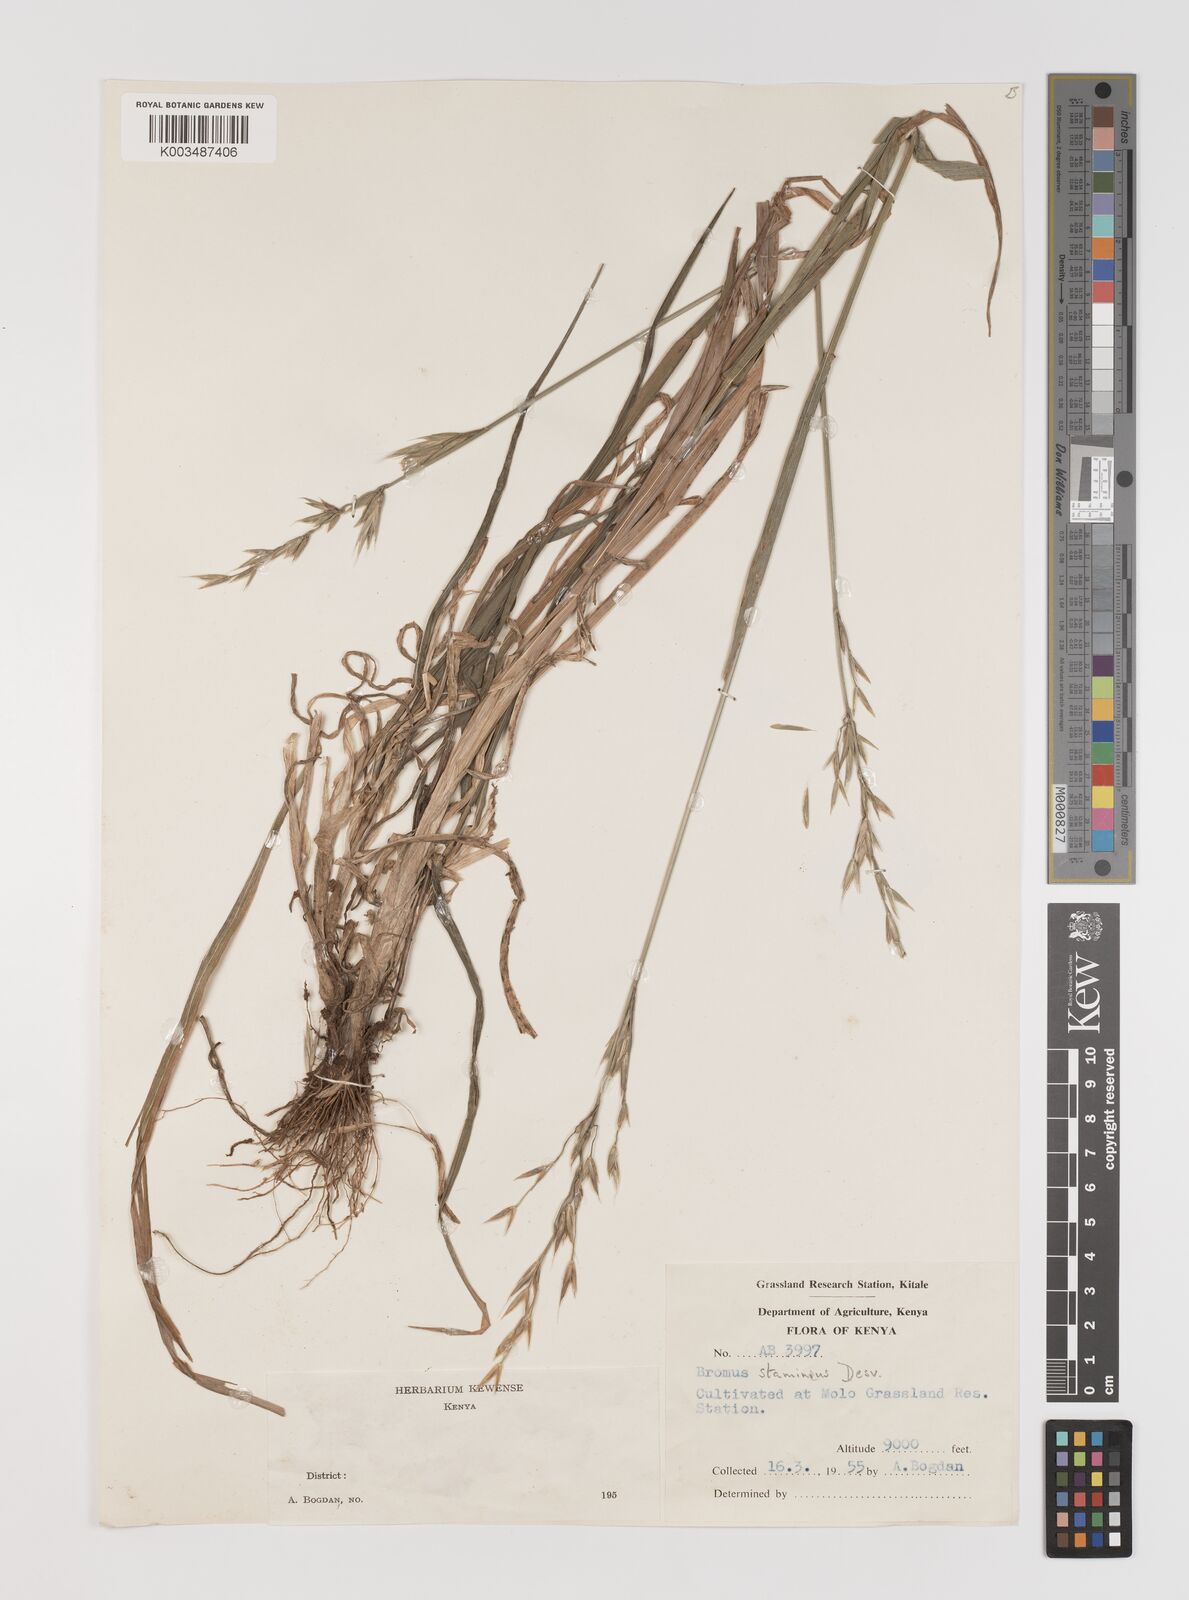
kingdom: Plantae
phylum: Tracheophyta
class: Liliopsida
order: Poales
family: Poaceae
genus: Bromus
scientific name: Bromus cebadilla
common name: Southern brome
